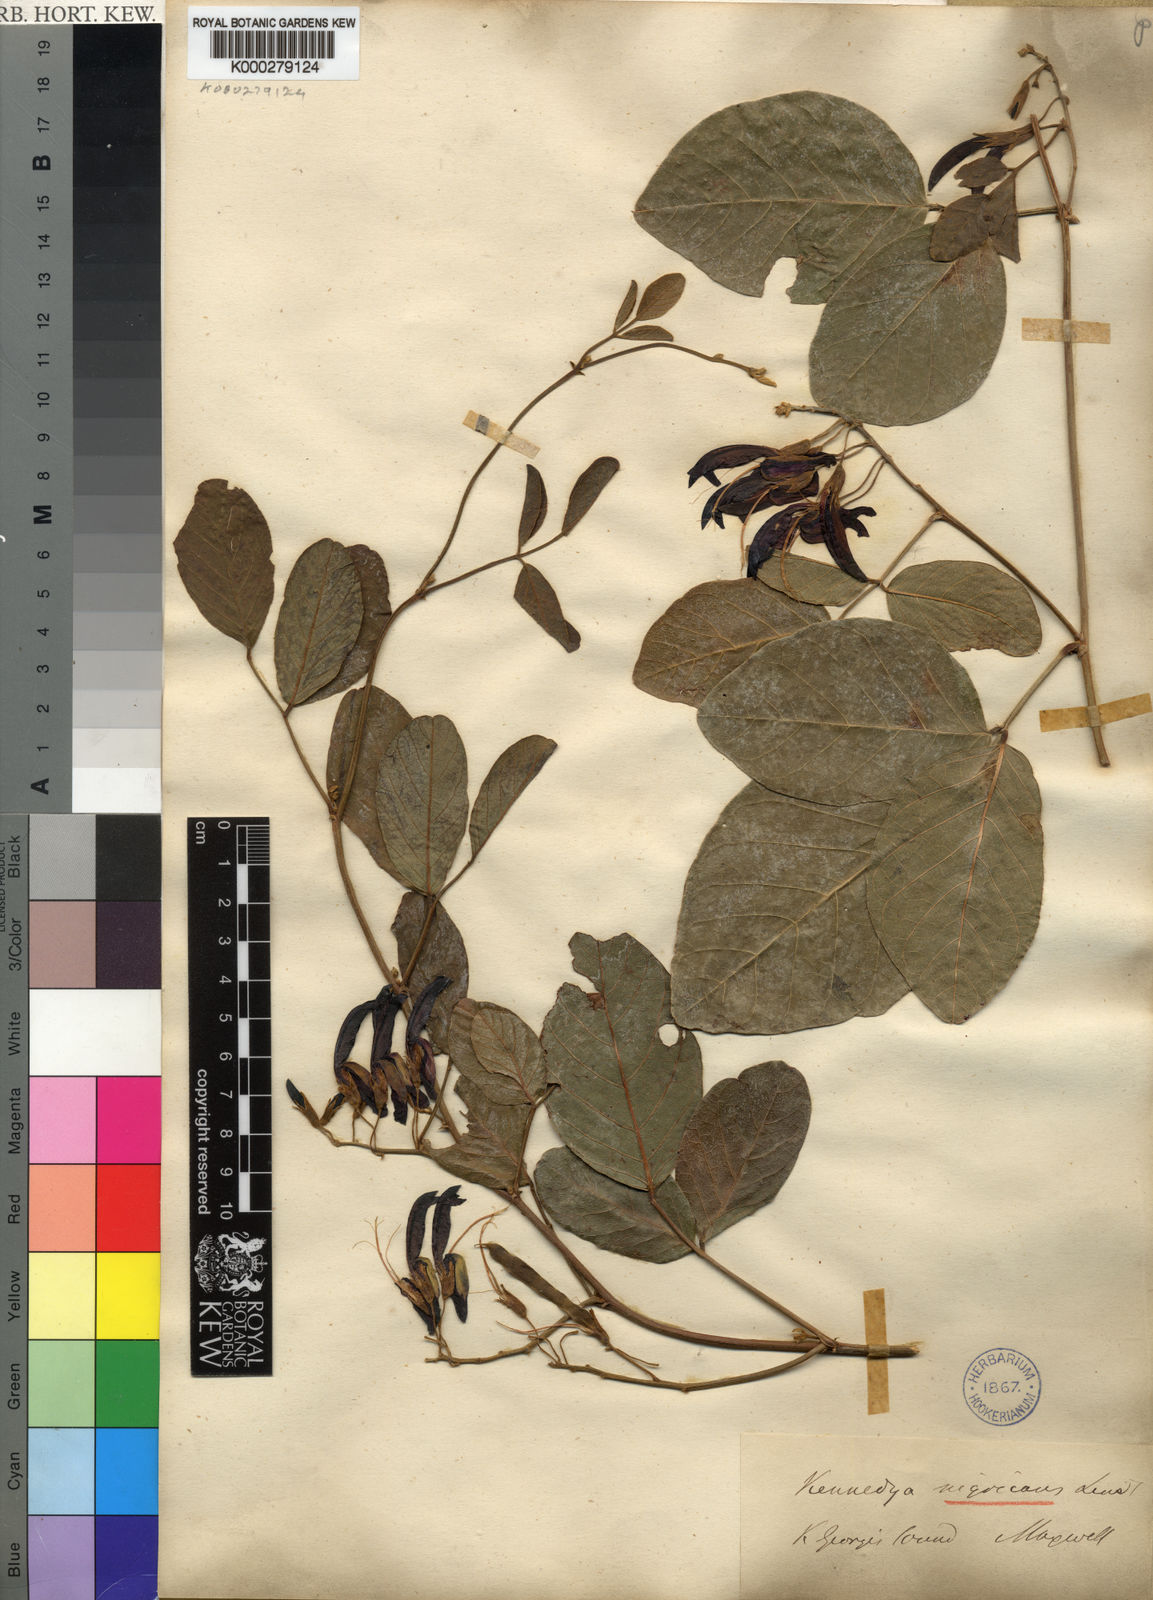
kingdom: Plantae
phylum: Tracheophyta
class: Magnoliopsida
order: Fabales
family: Fabaceae
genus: Kennedia
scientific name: Kennedia nigricans
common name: Black-bean
